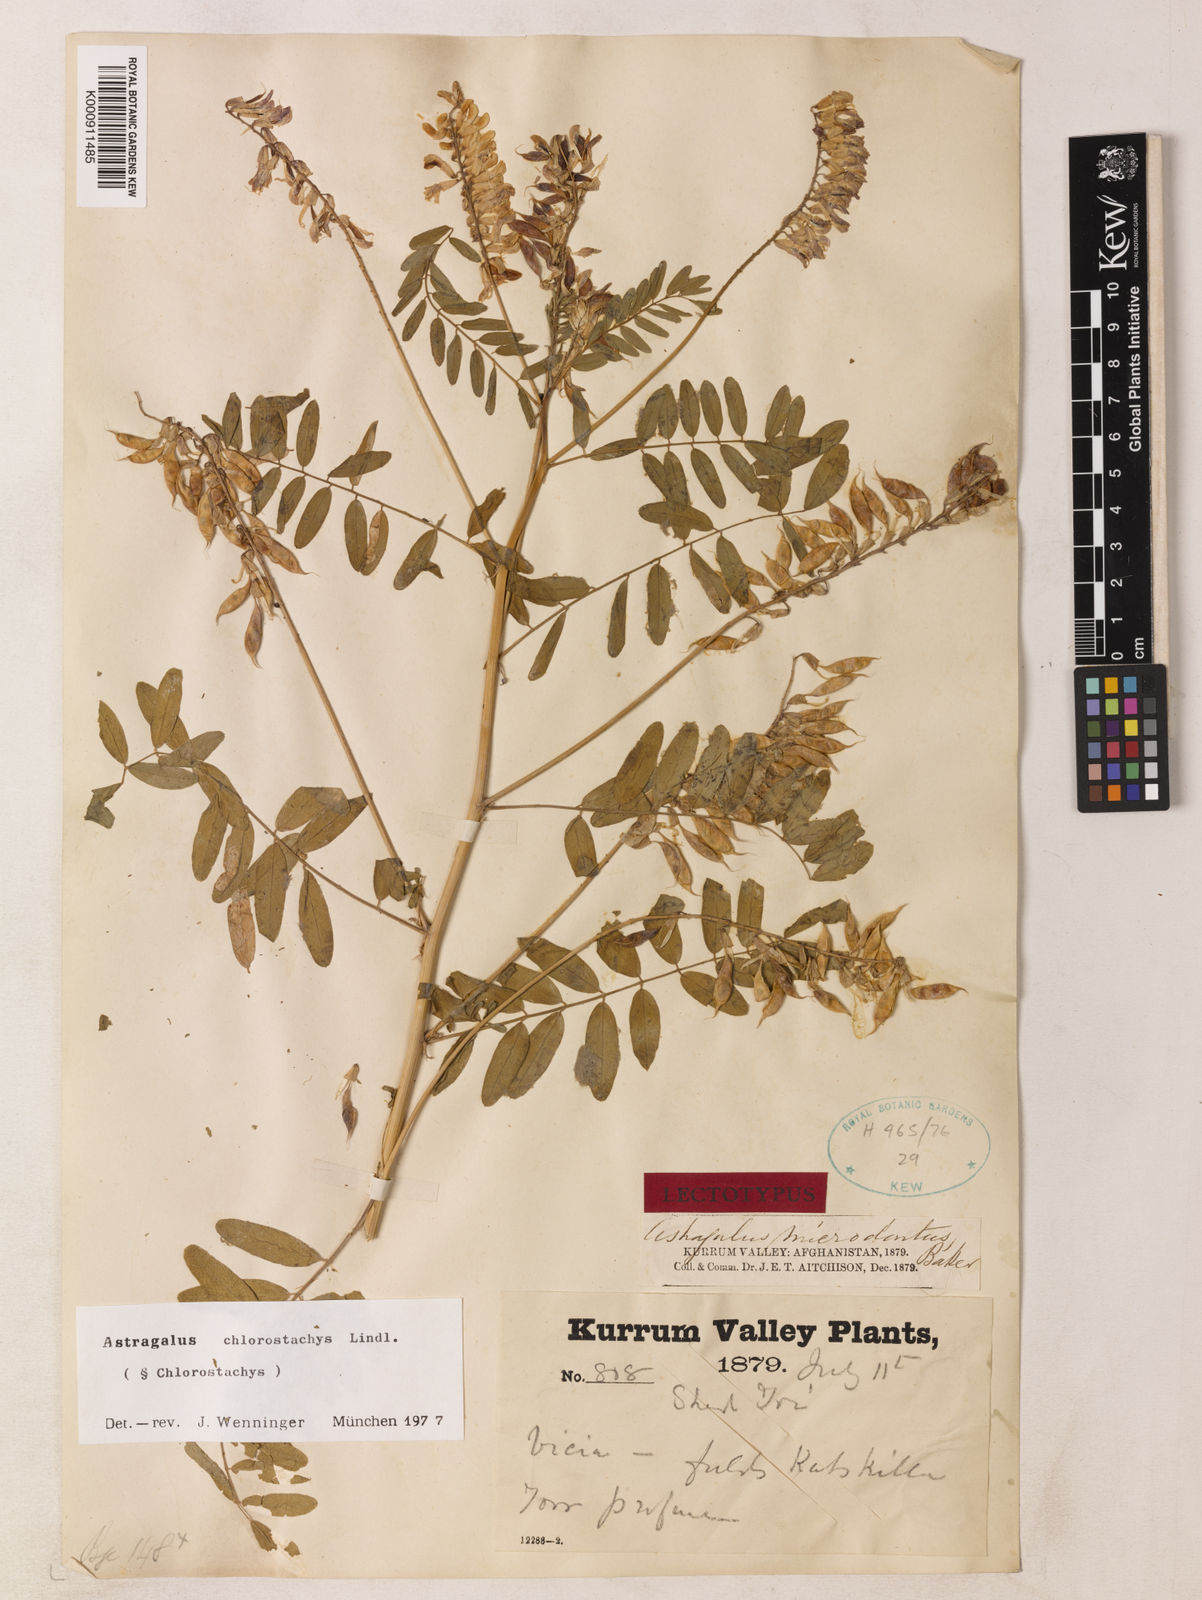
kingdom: Plantae
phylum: Tracheophyta
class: Magnoliopsida
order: Fabales
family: Fabaceae
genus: Astragalus
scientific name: Astragalus chlorostachys
